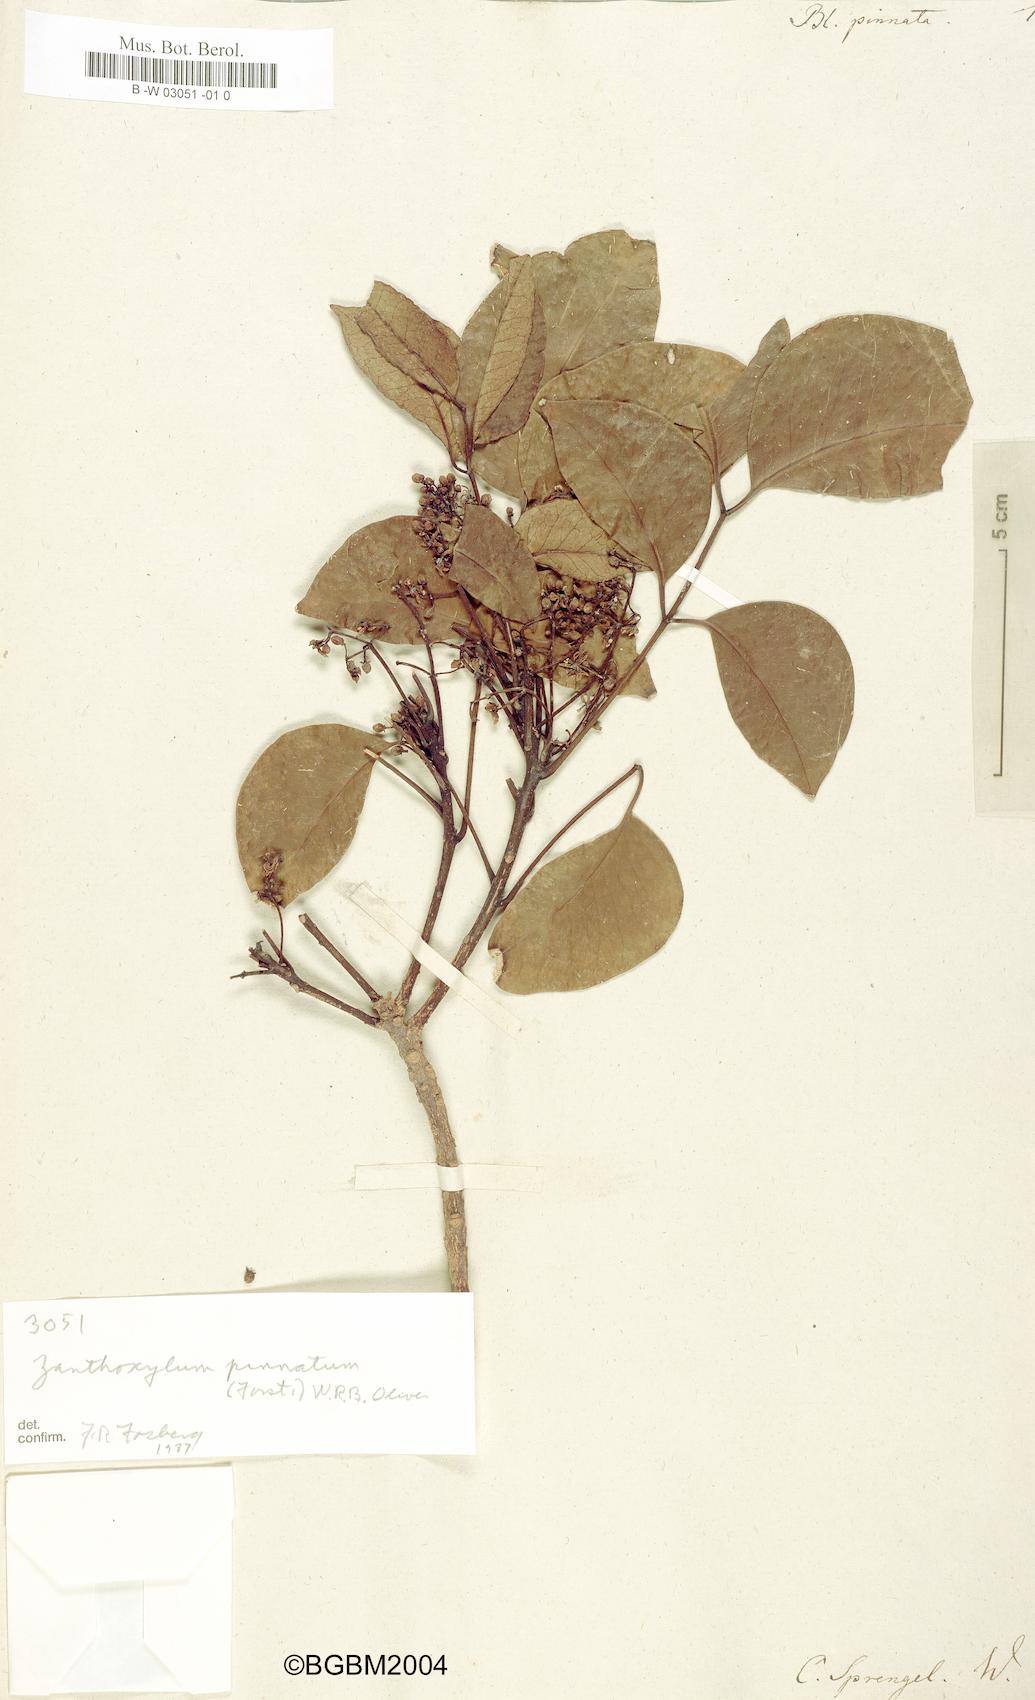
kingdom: Plantae
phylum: Tracheophyta
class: Magnoliopsida
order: Sapindales
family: Rutaceae
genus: Zanthoxylum
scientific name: Zanthoxylum pinnatum
